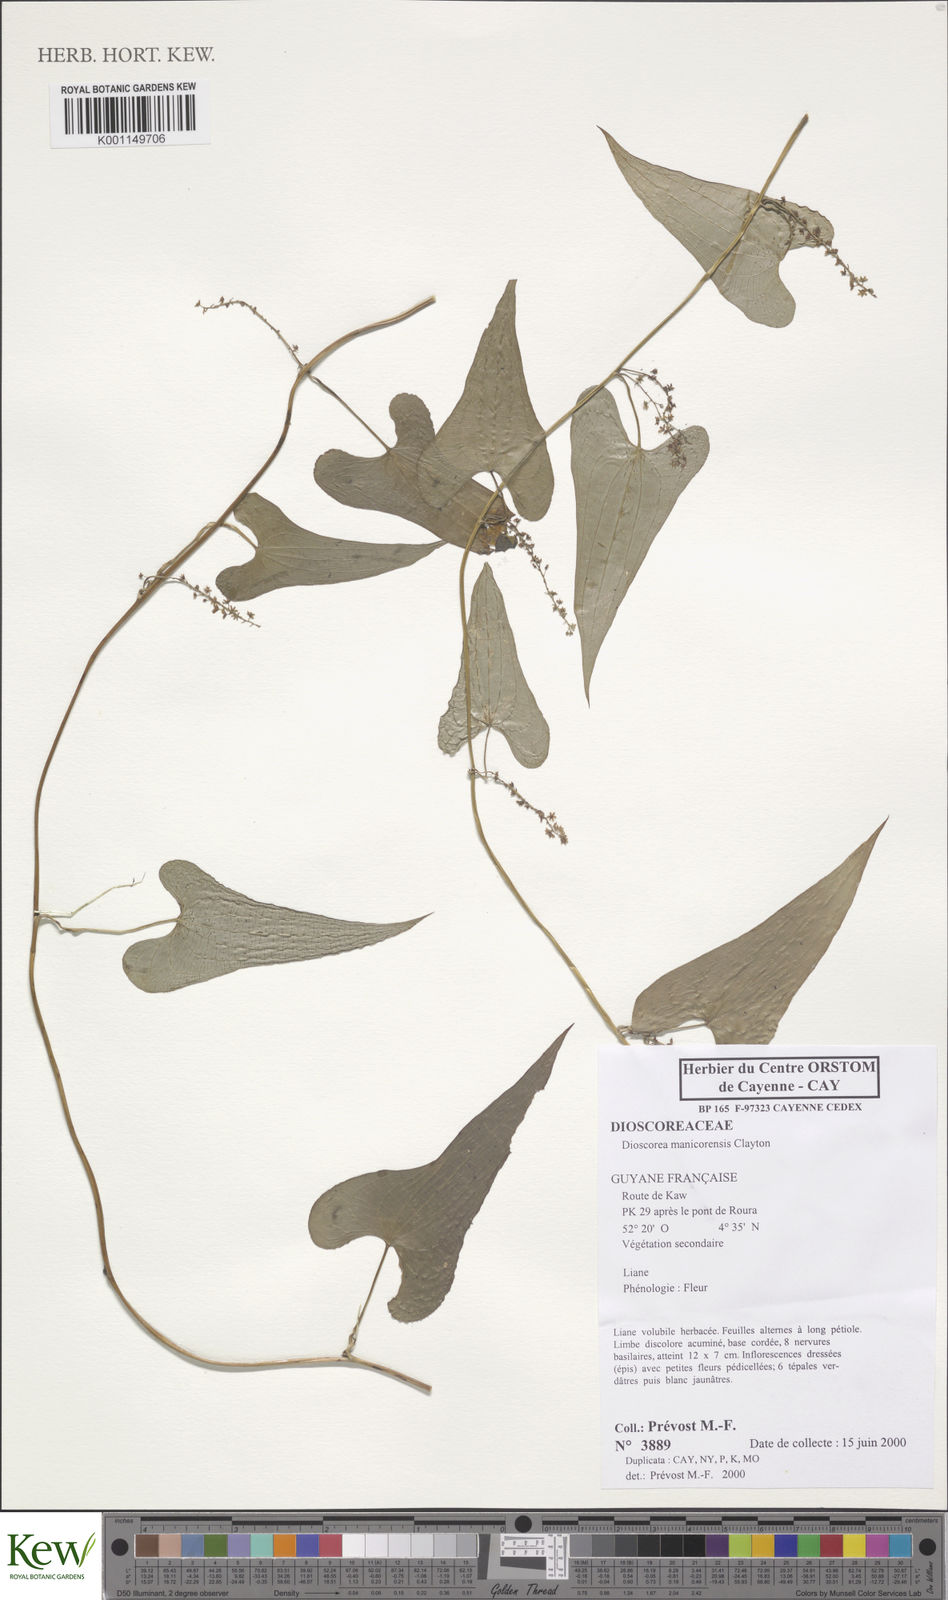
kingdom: Plantae
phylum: Tracheophyta
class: Liliopsida
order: Dioscoreales
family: Dioscoreaceae
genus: Dioscorea
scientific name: Dioscorea piperifolia
